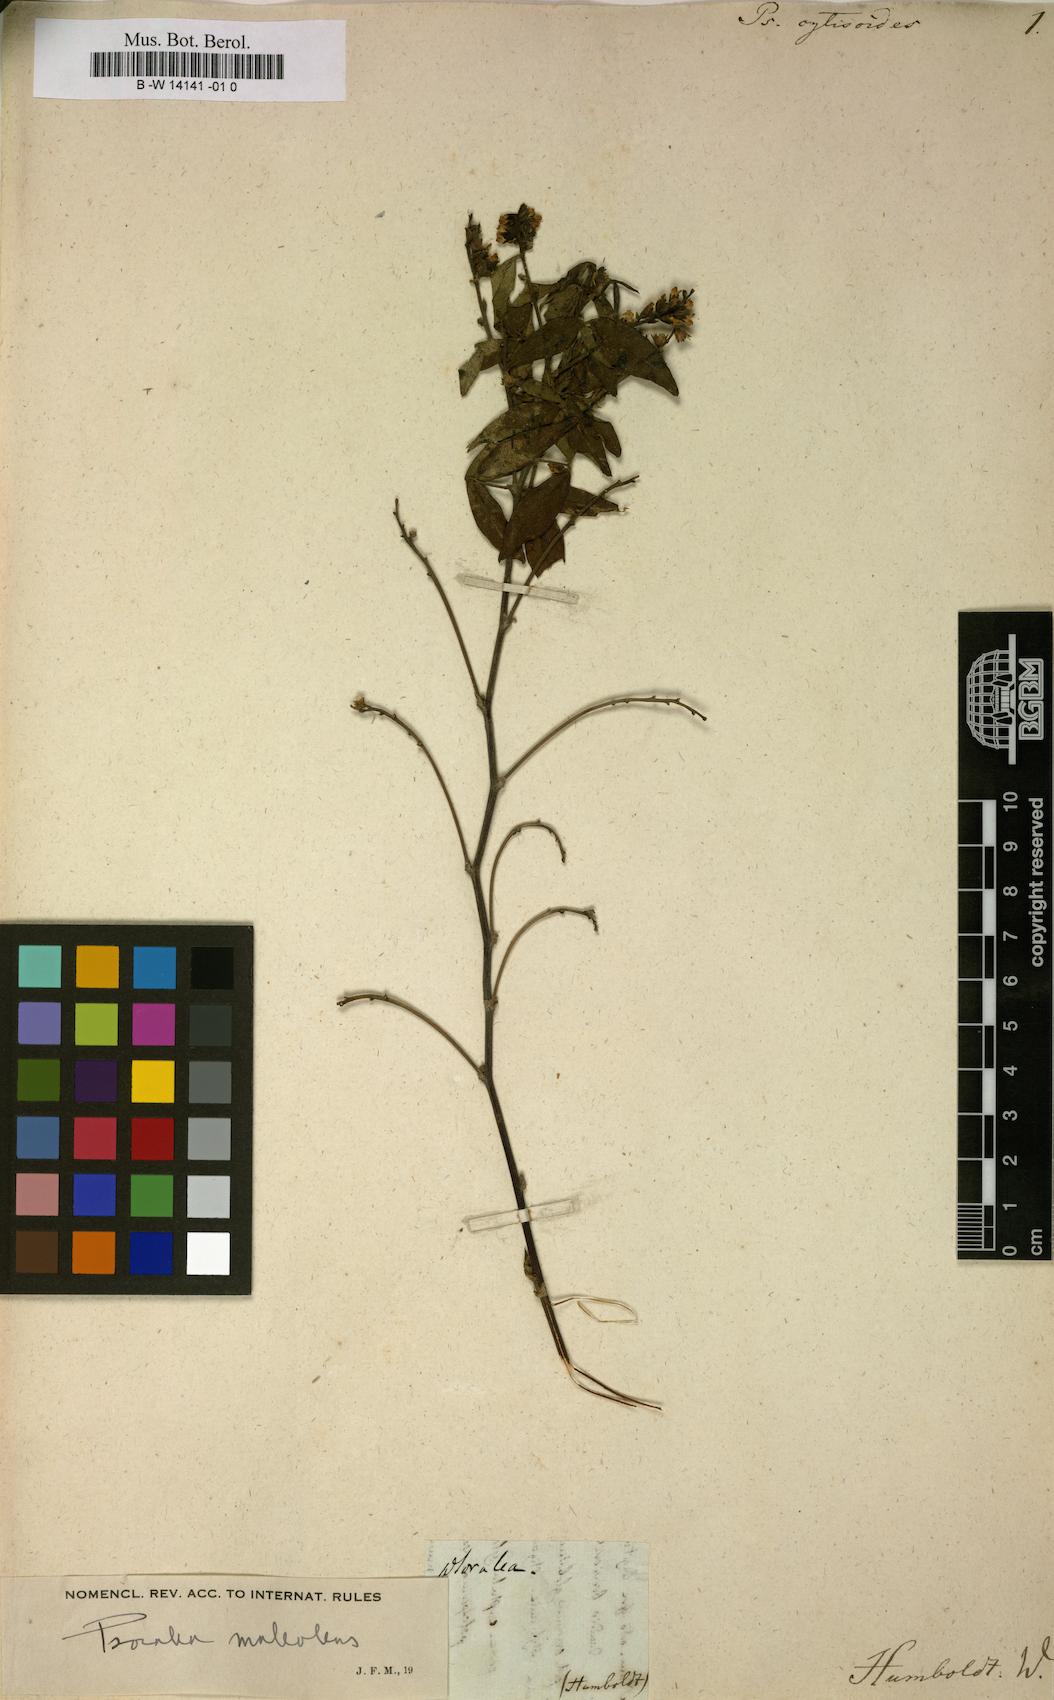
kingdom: Plantae
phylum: Tracheophyta
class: Magnoliopsida
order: Fabales
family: Fabaceae
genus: Indigofera
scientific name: Indigofera cytisoides
